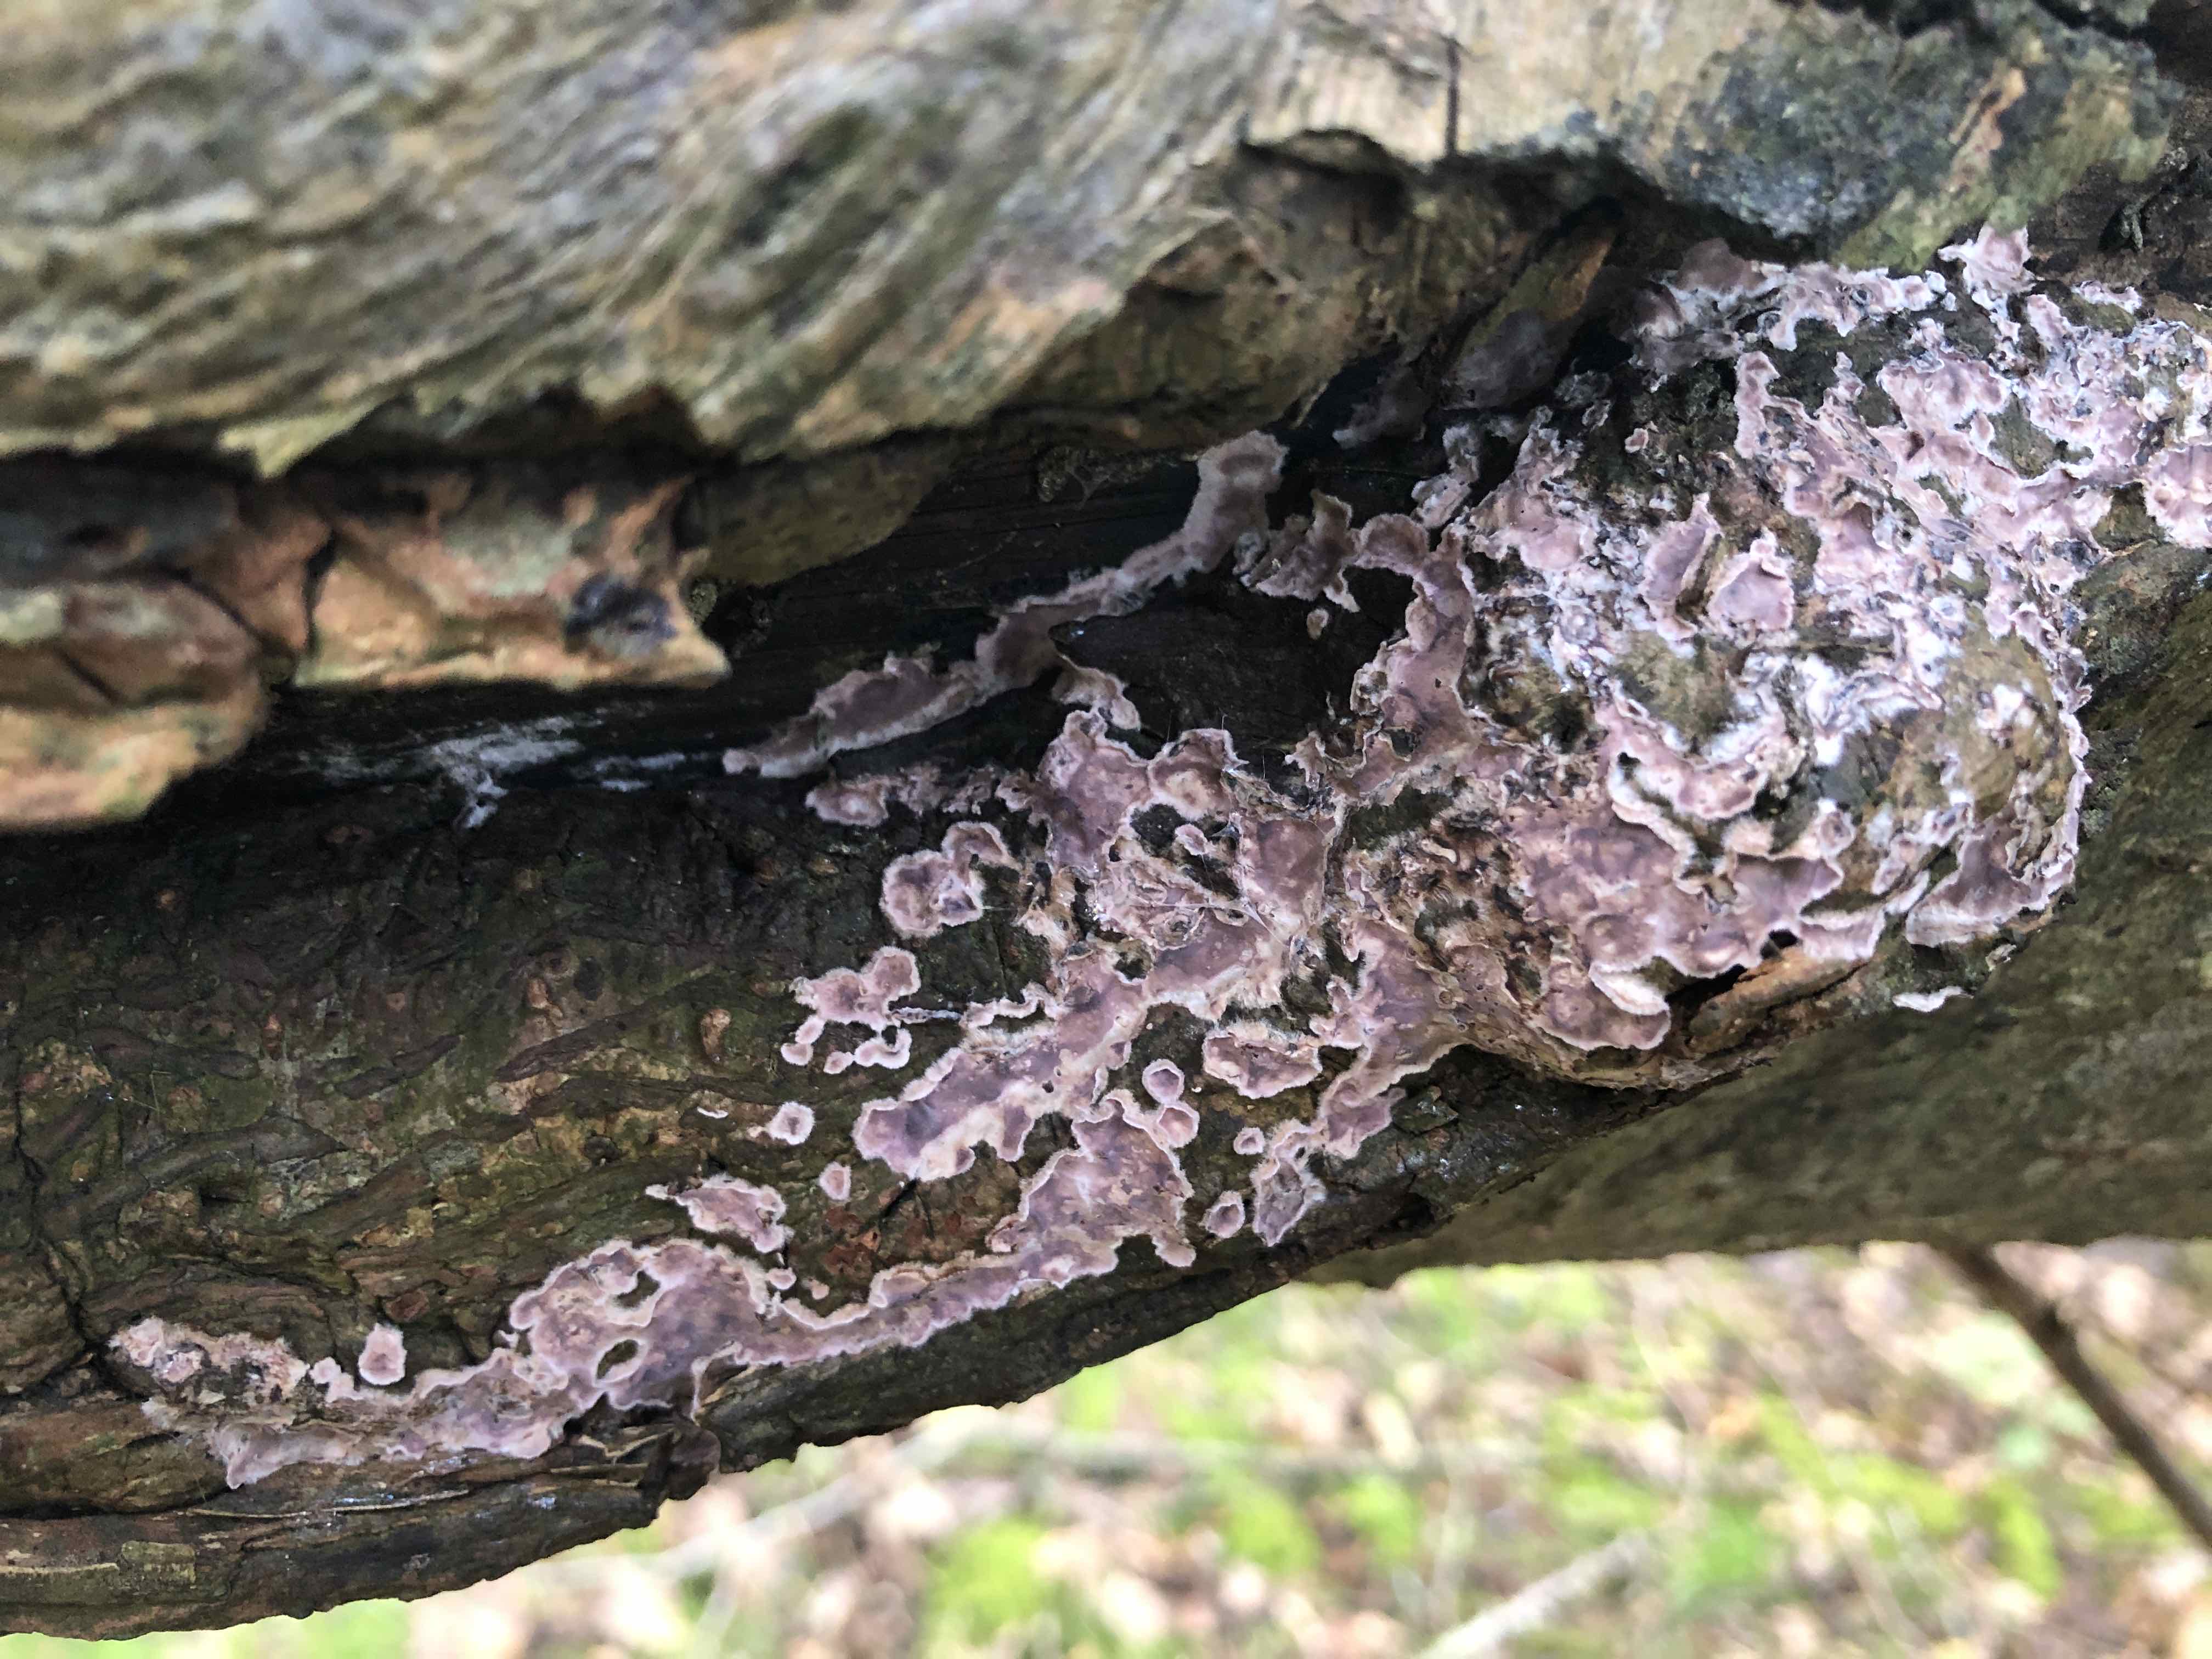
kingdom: Fungi
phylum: Basidiomycota
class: Agaricomycetes
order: Agaricales
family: Cyphellaceae
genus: Chondrostereum
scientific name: Chondrostereum purpureum
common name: purpurlædersvamp
